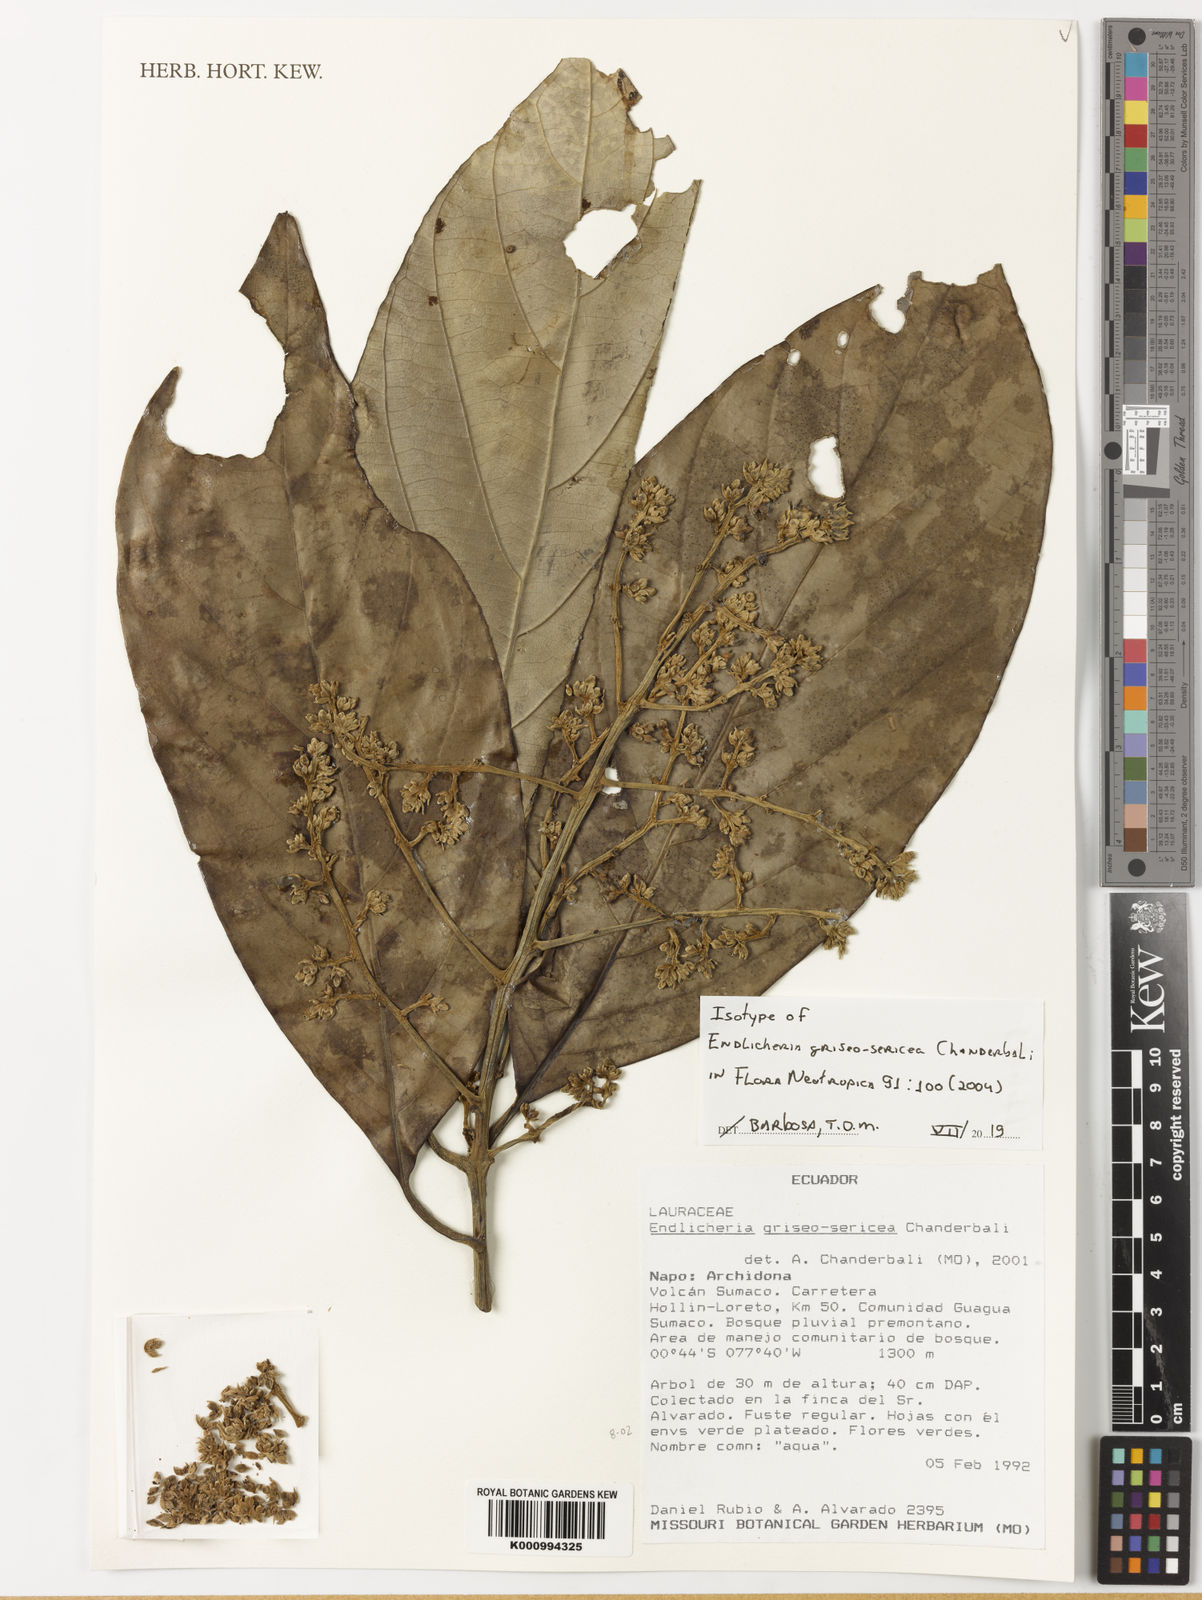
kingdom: Plantae
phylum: Tracheophyta
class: Magnoliopsida
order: Laurales
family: Lauraceae
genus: Endlicheria
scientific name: Endlicheria griseosericea
